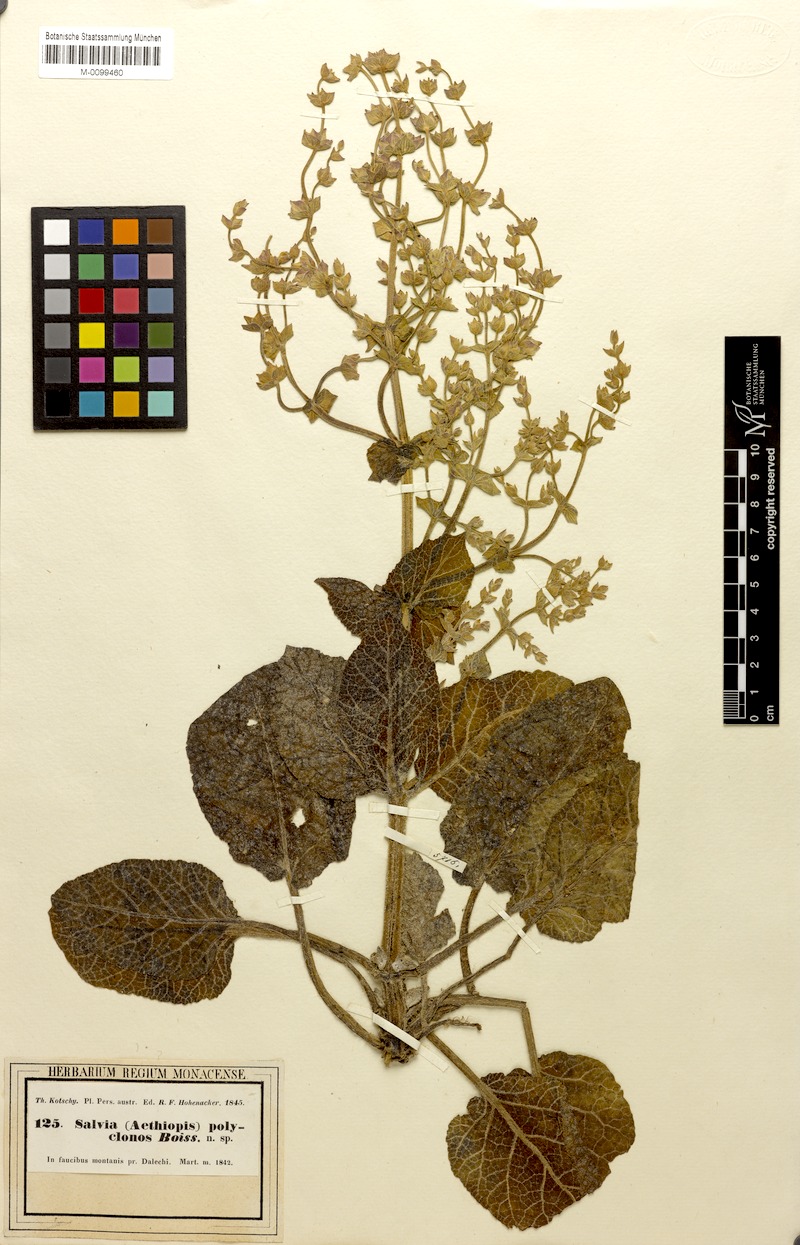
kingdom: Plantae
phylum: Tracheophyta
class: Magnoliopsida
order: Lamiales
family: Lamiaceae
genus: Salvia
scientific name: Salvia compressa
